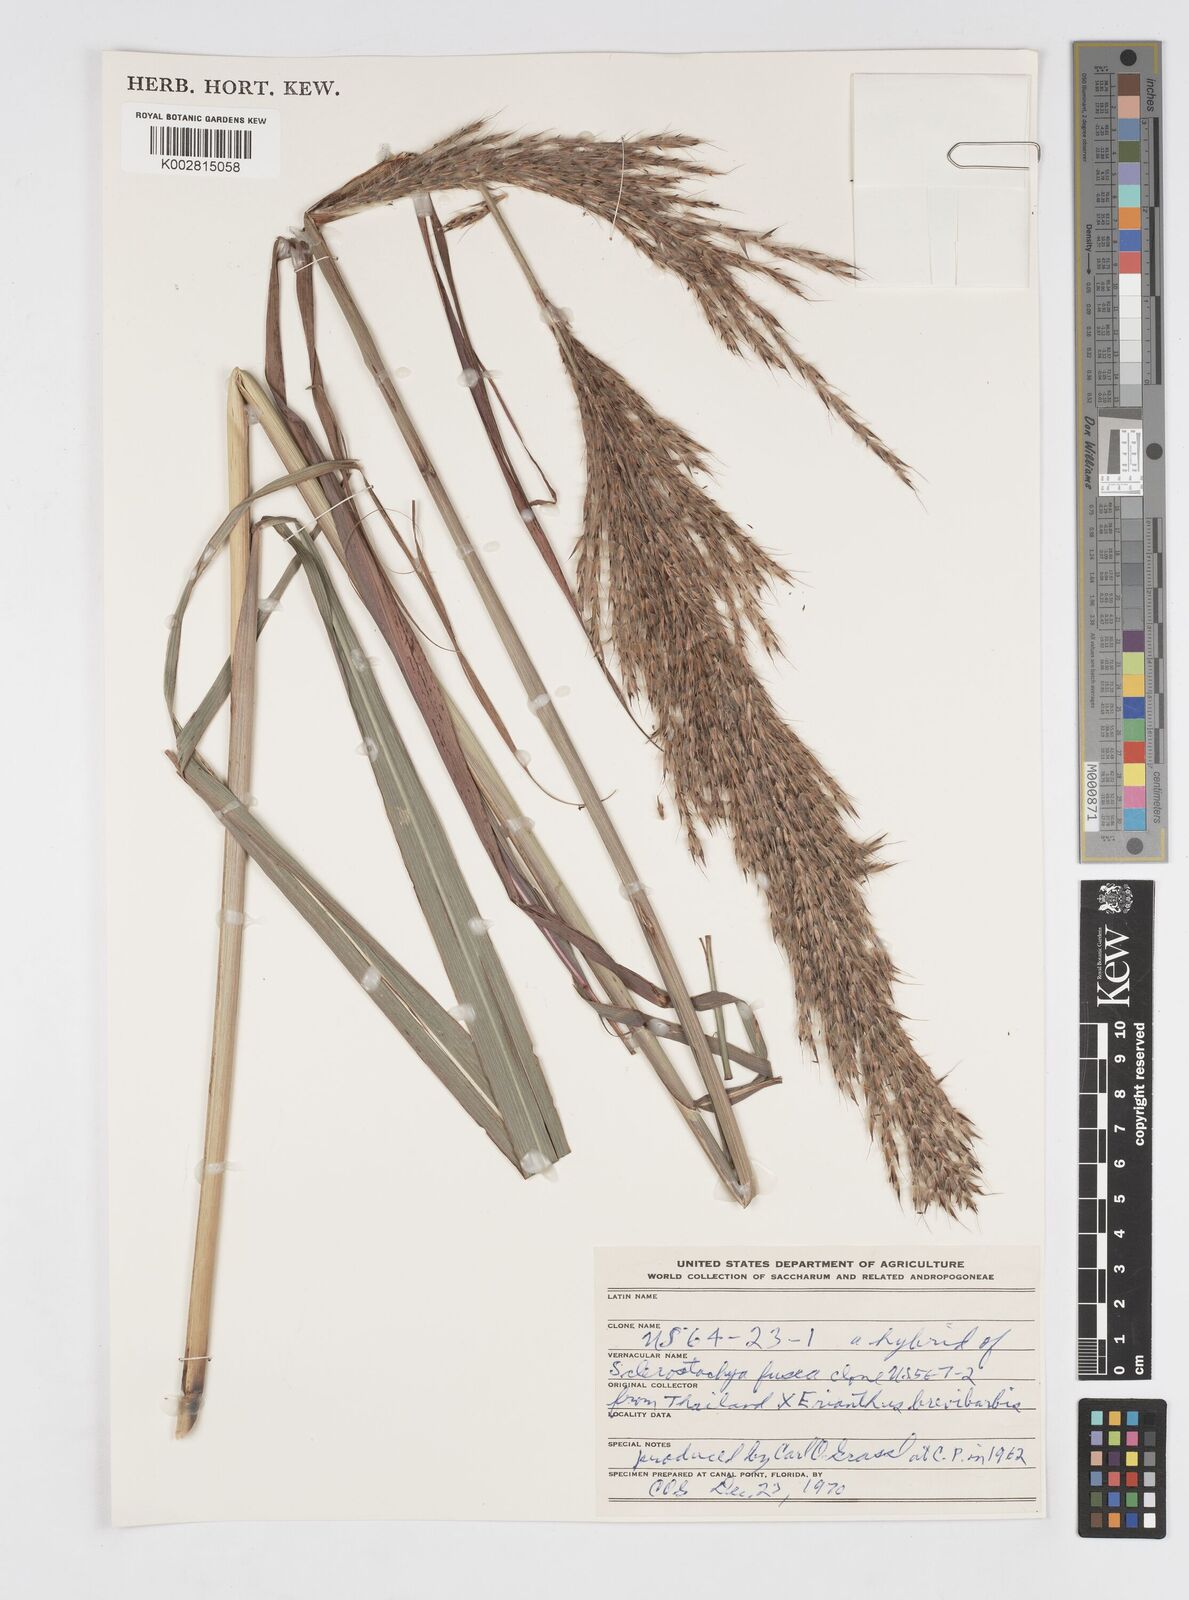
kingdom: Plantae
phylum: Tracheophyta
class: Liliopsida
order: Poales
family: Poaceae
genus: Saccharum
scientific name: Saccharum
